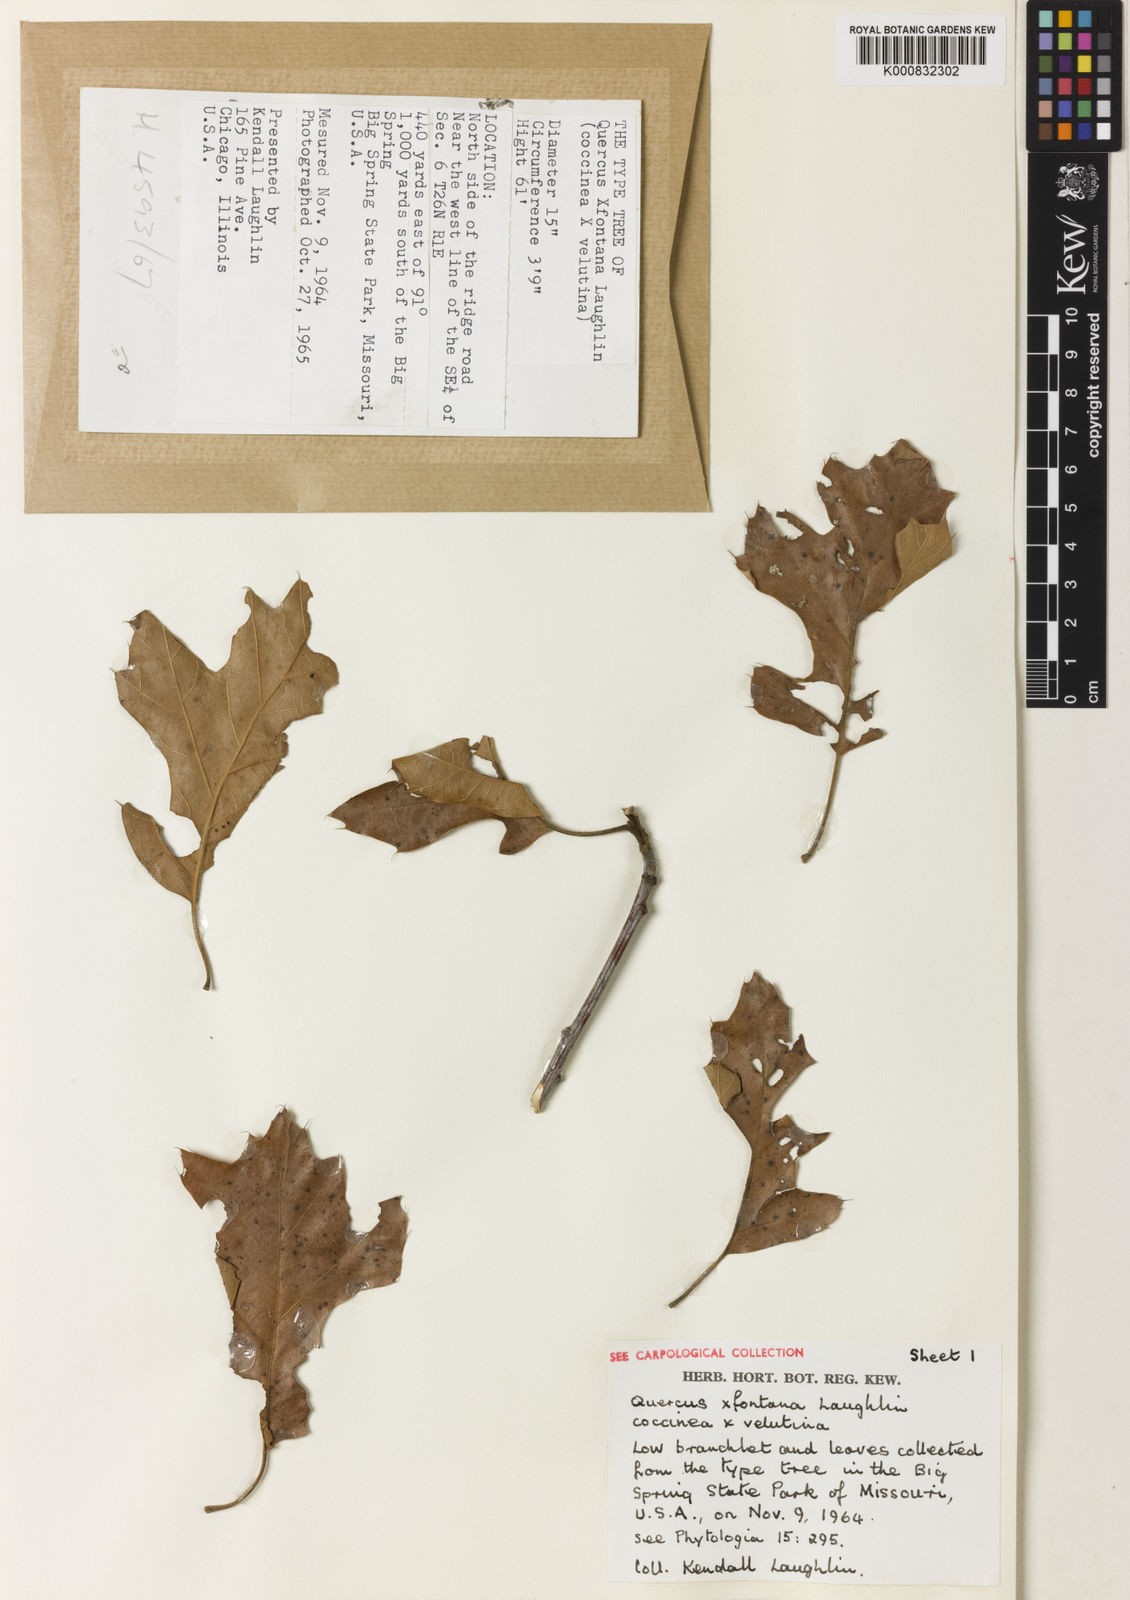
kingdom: Plantae
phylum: Tracheophyta
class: Magnoliopsida
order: Fagales
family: Fagaceae
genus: Quercus
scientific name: Quercus
